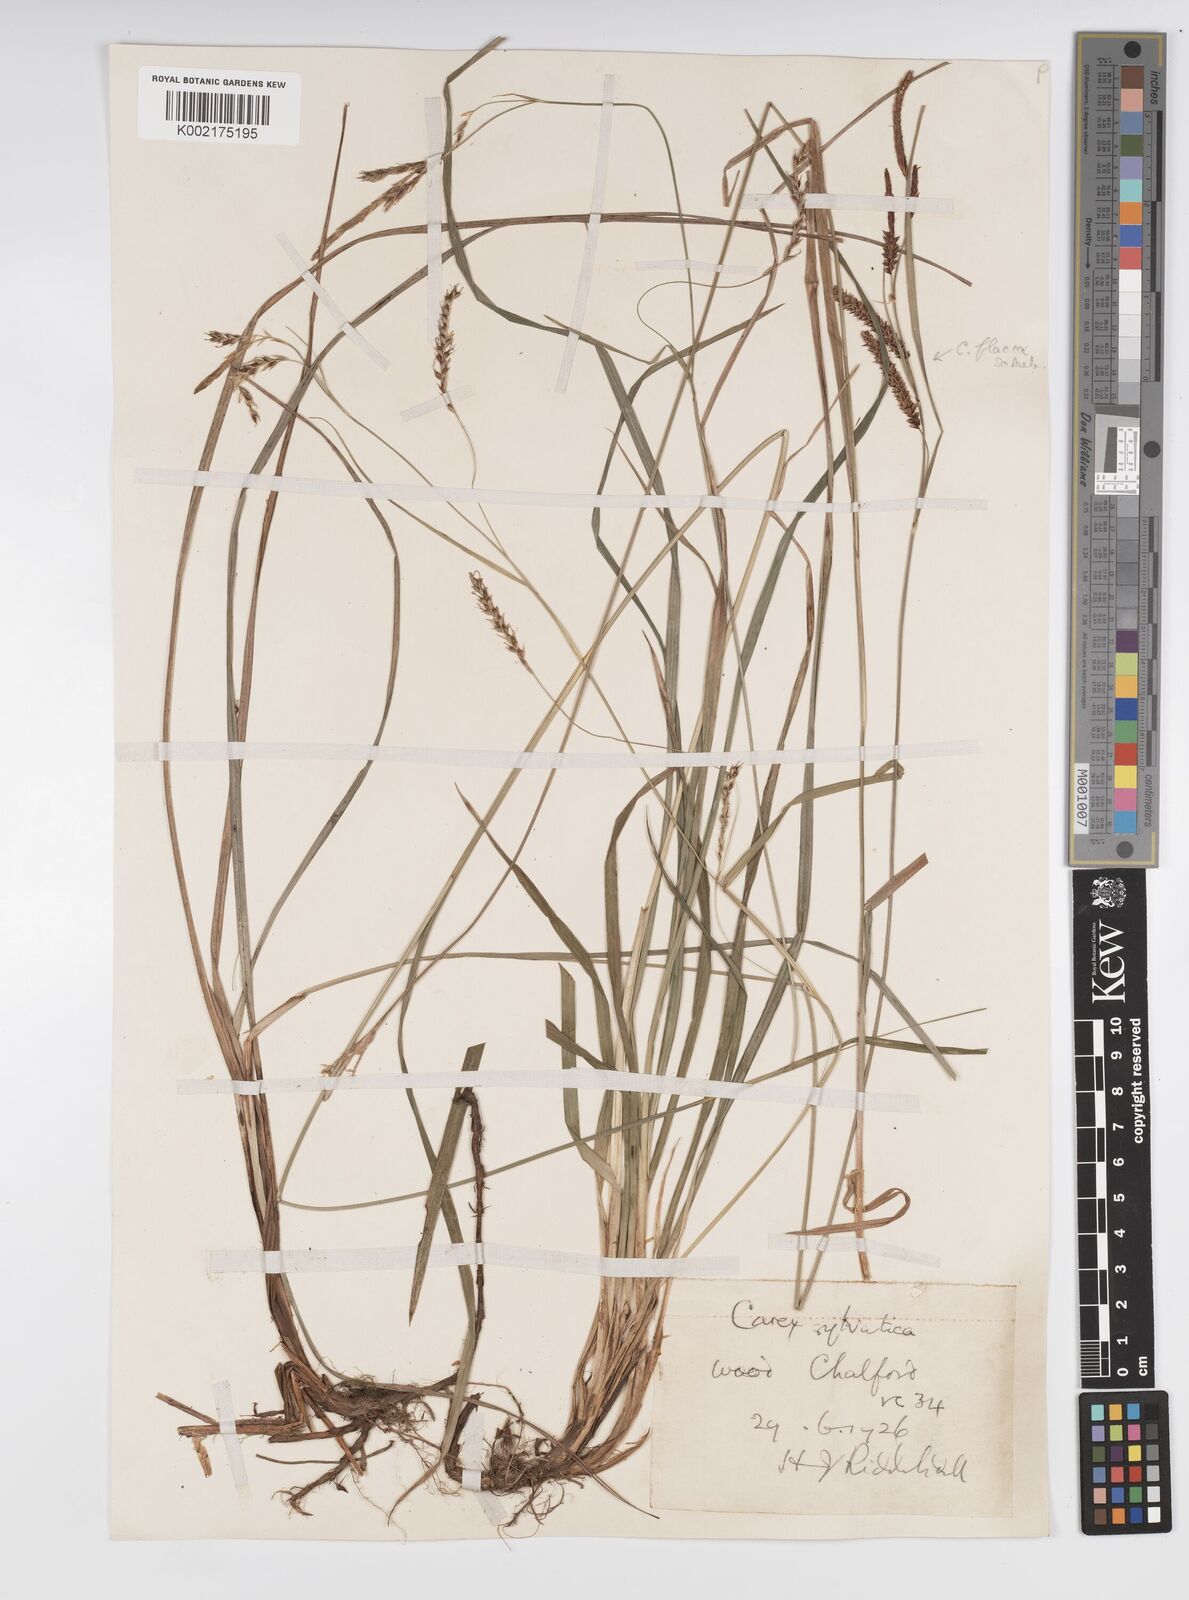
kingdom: Plantae
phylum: Tracheophyta
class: Liliopsida
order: Poales
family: Cyperaceae
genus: Carex
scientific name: Carex sylvatica
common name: Wood-sedge
